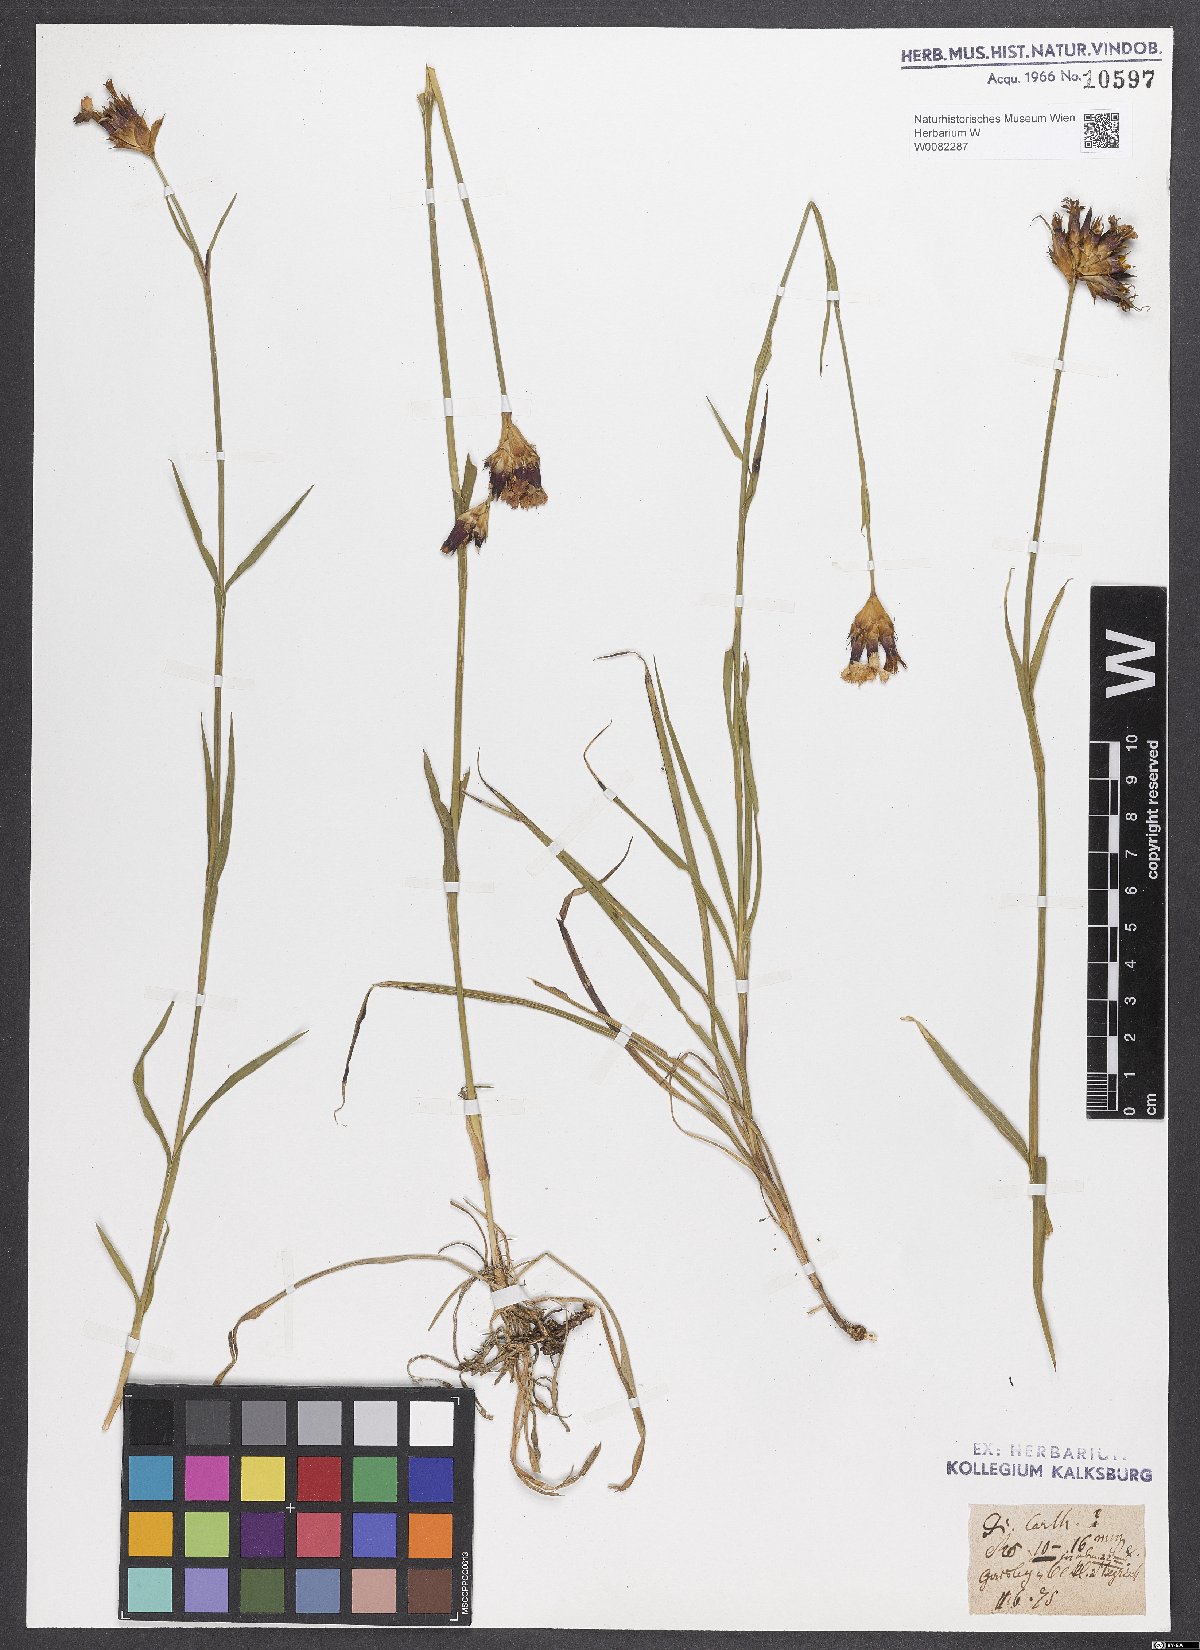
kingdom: Plantae
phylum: Tracheophyta
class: Magnoliopsida
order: Caryophyllales
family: Caryophyllaceae
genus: Dianthus
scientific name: Dianthus carthusianorum
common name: Carthusian pink
